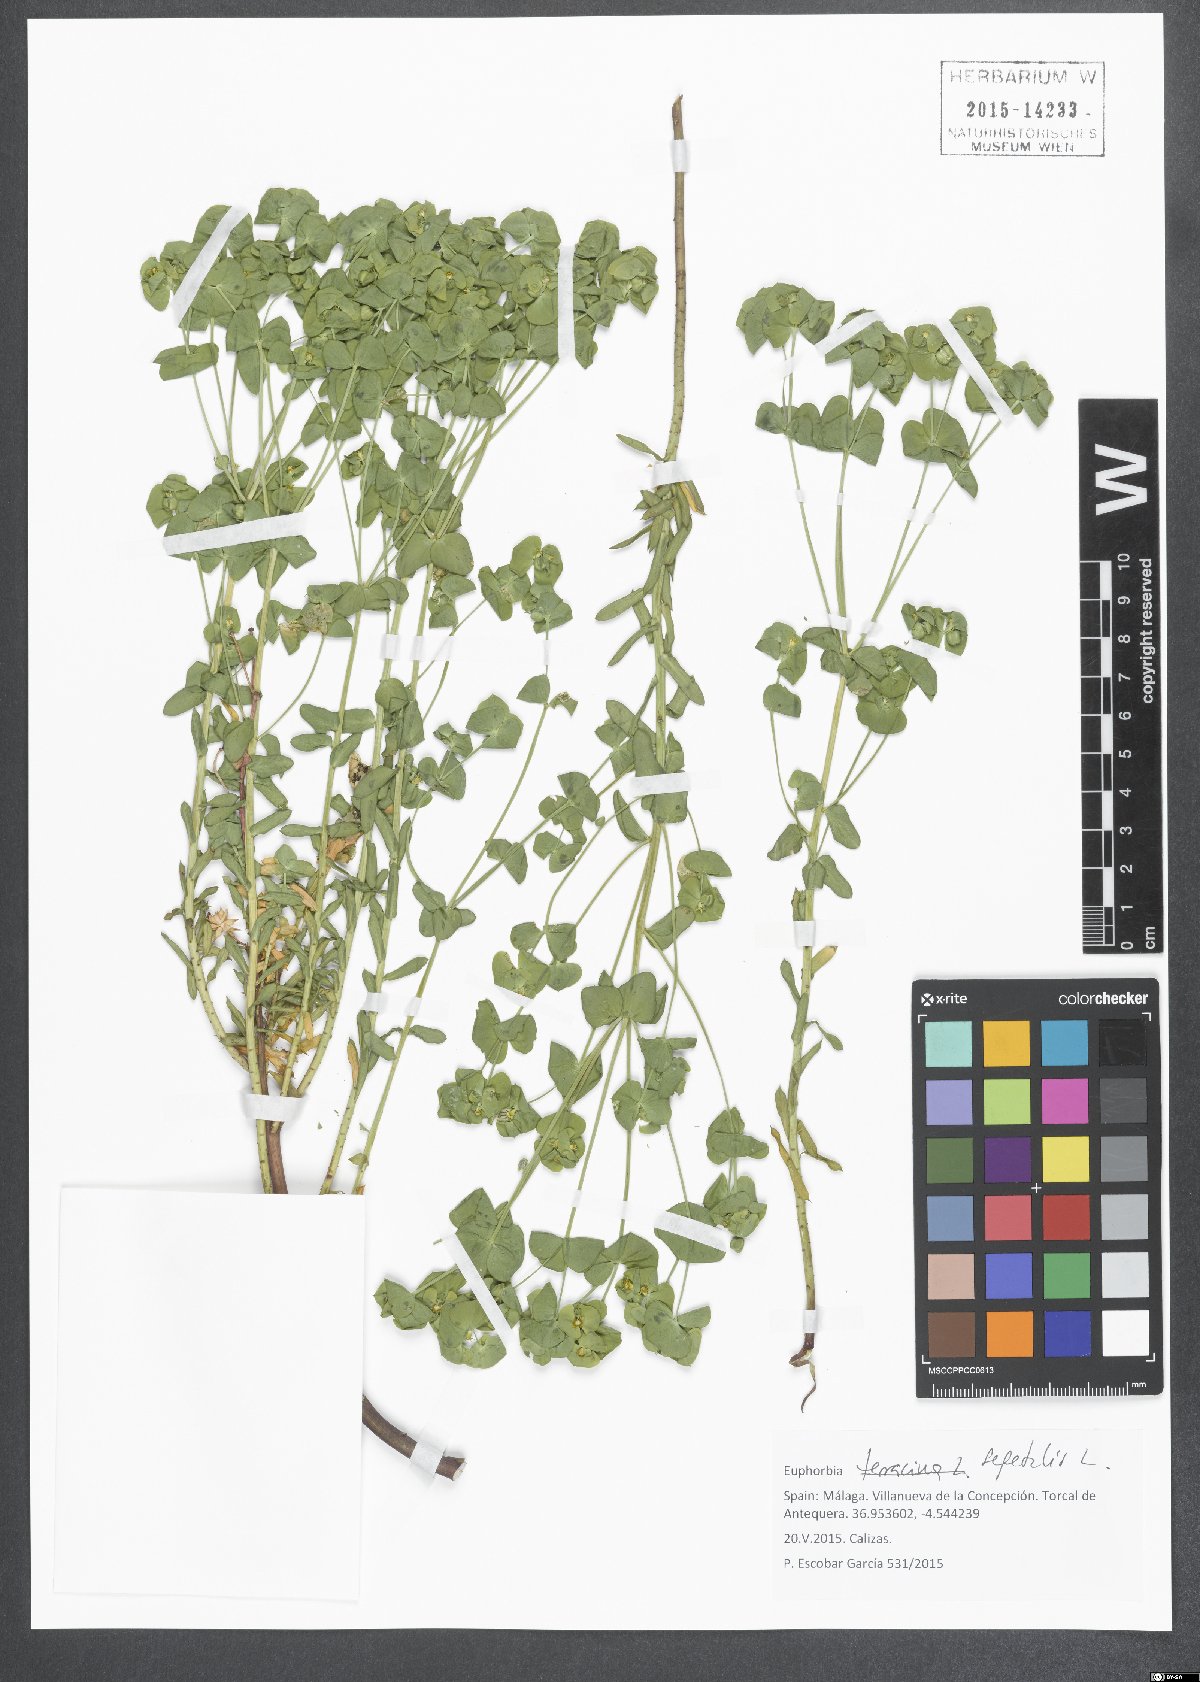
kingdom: Plantae
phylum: Tracheophyta
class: Magnoliopsida
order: Malpighiales
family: Euphorbiaceae
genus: Euphorbia
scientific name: Euphorbia segetalis
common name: Corn spurge
